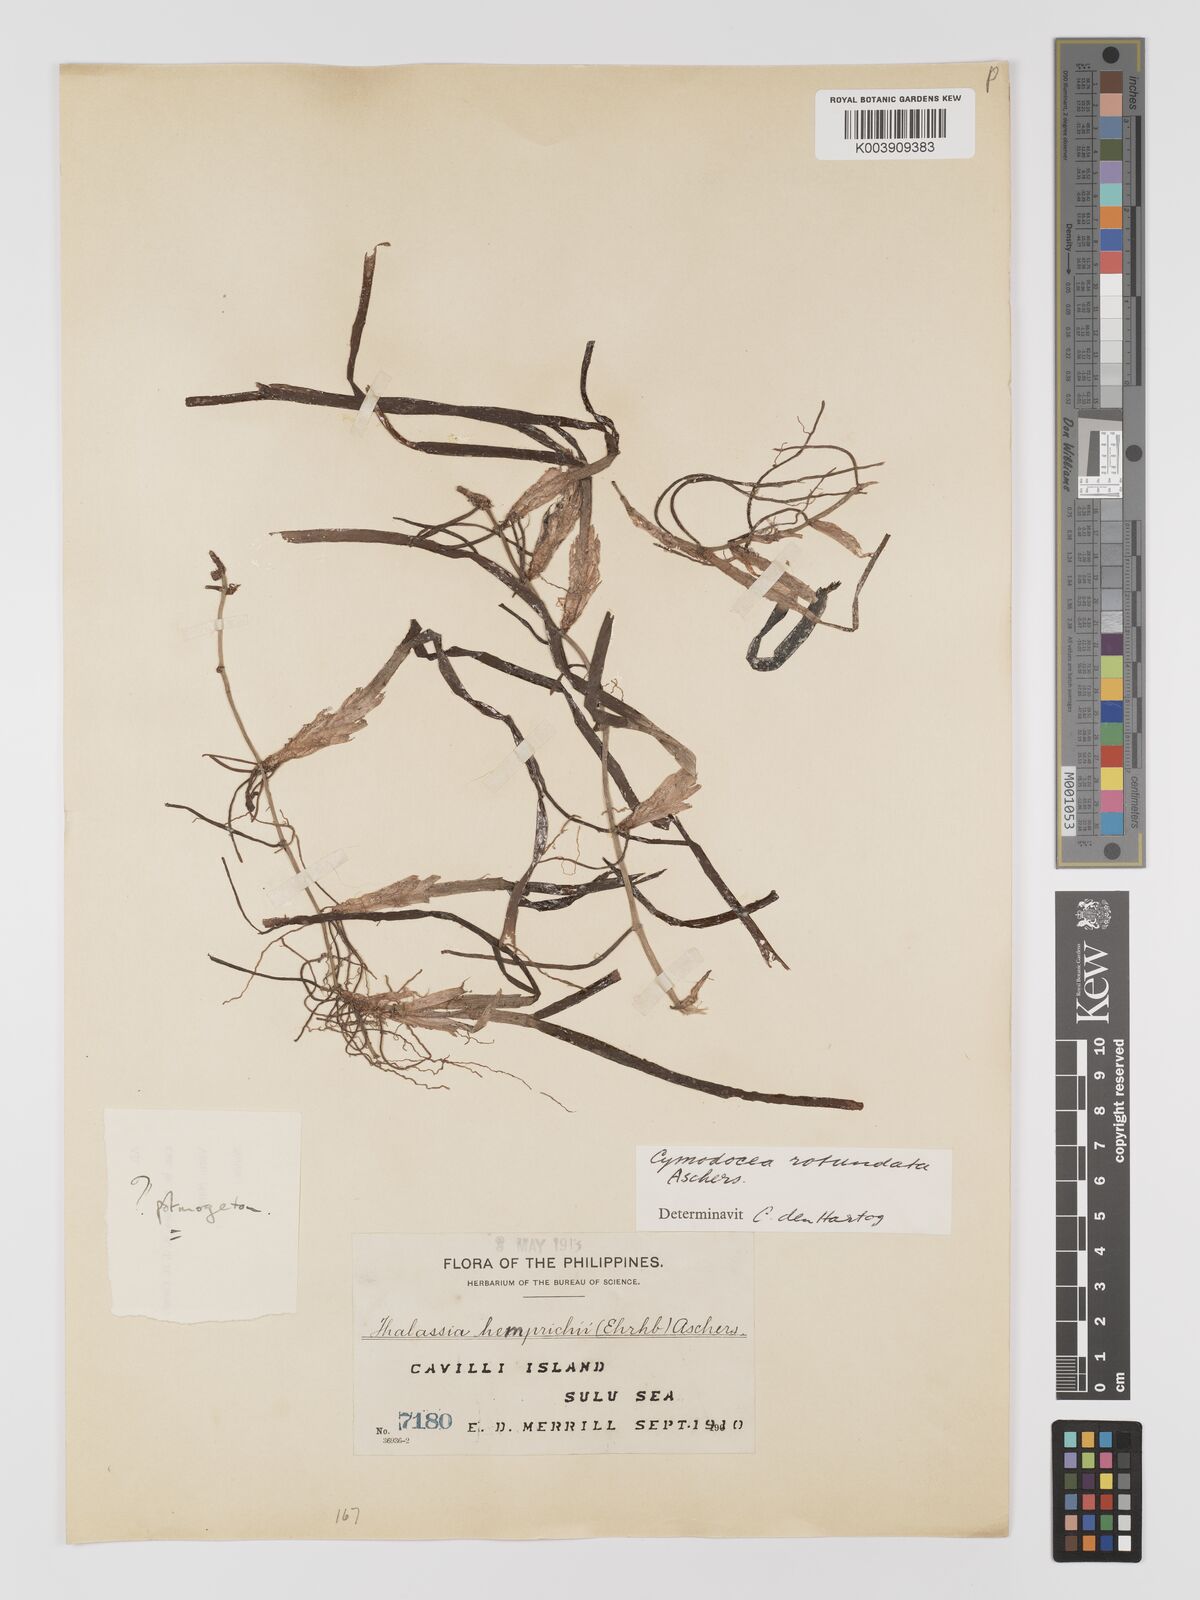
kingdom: Plantae
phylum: Tracheophyta
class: Liliopsida
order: Alismatales
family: Cymodoceaceae
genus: Cymodocea
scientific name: Cymodocea rotundata
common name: Species code: cr
